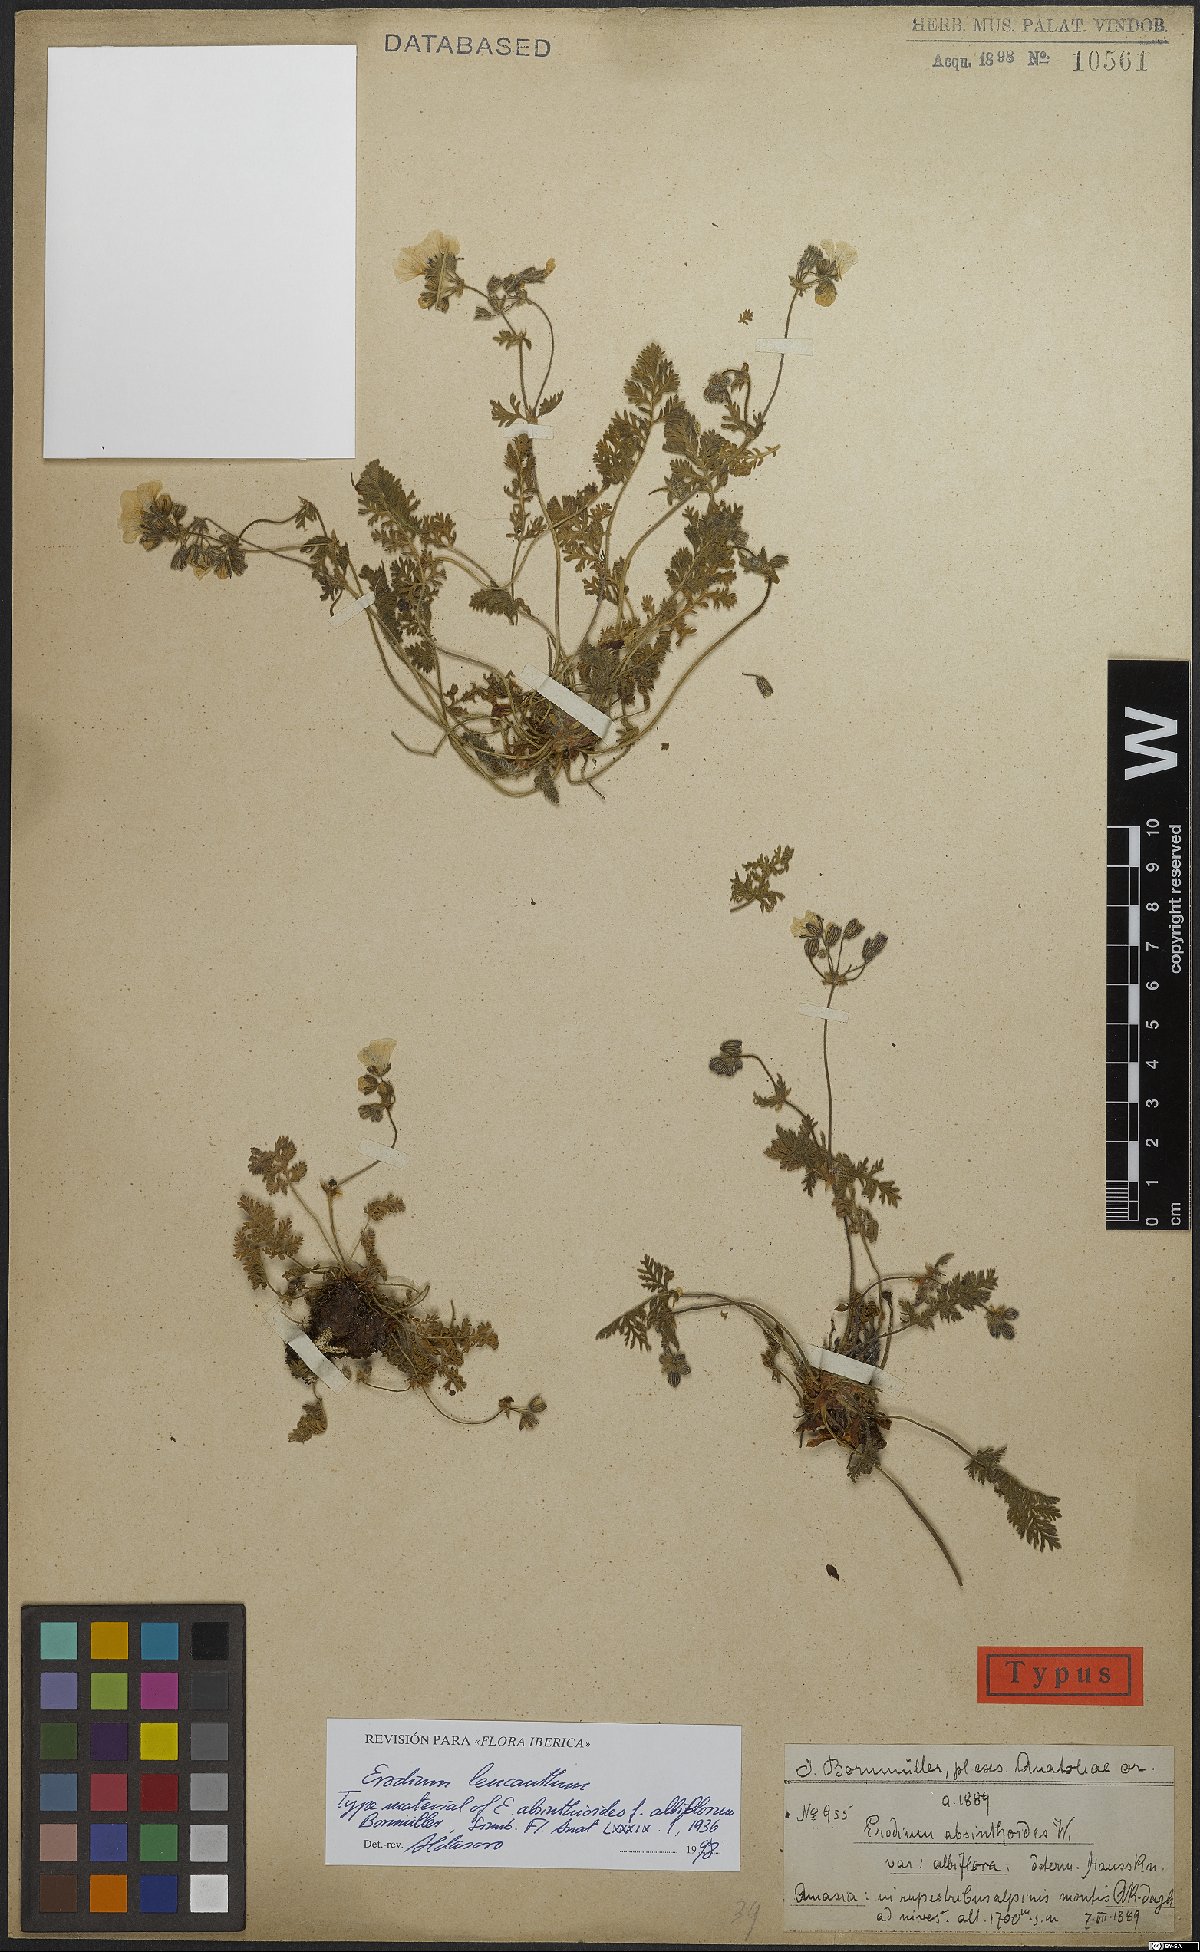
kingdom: Plantae
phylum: Tracheophyta
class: Magnoliopsida
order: Geraniales
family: Geraniaceae
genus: Erodium
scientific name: Erodium trichomanifolium
